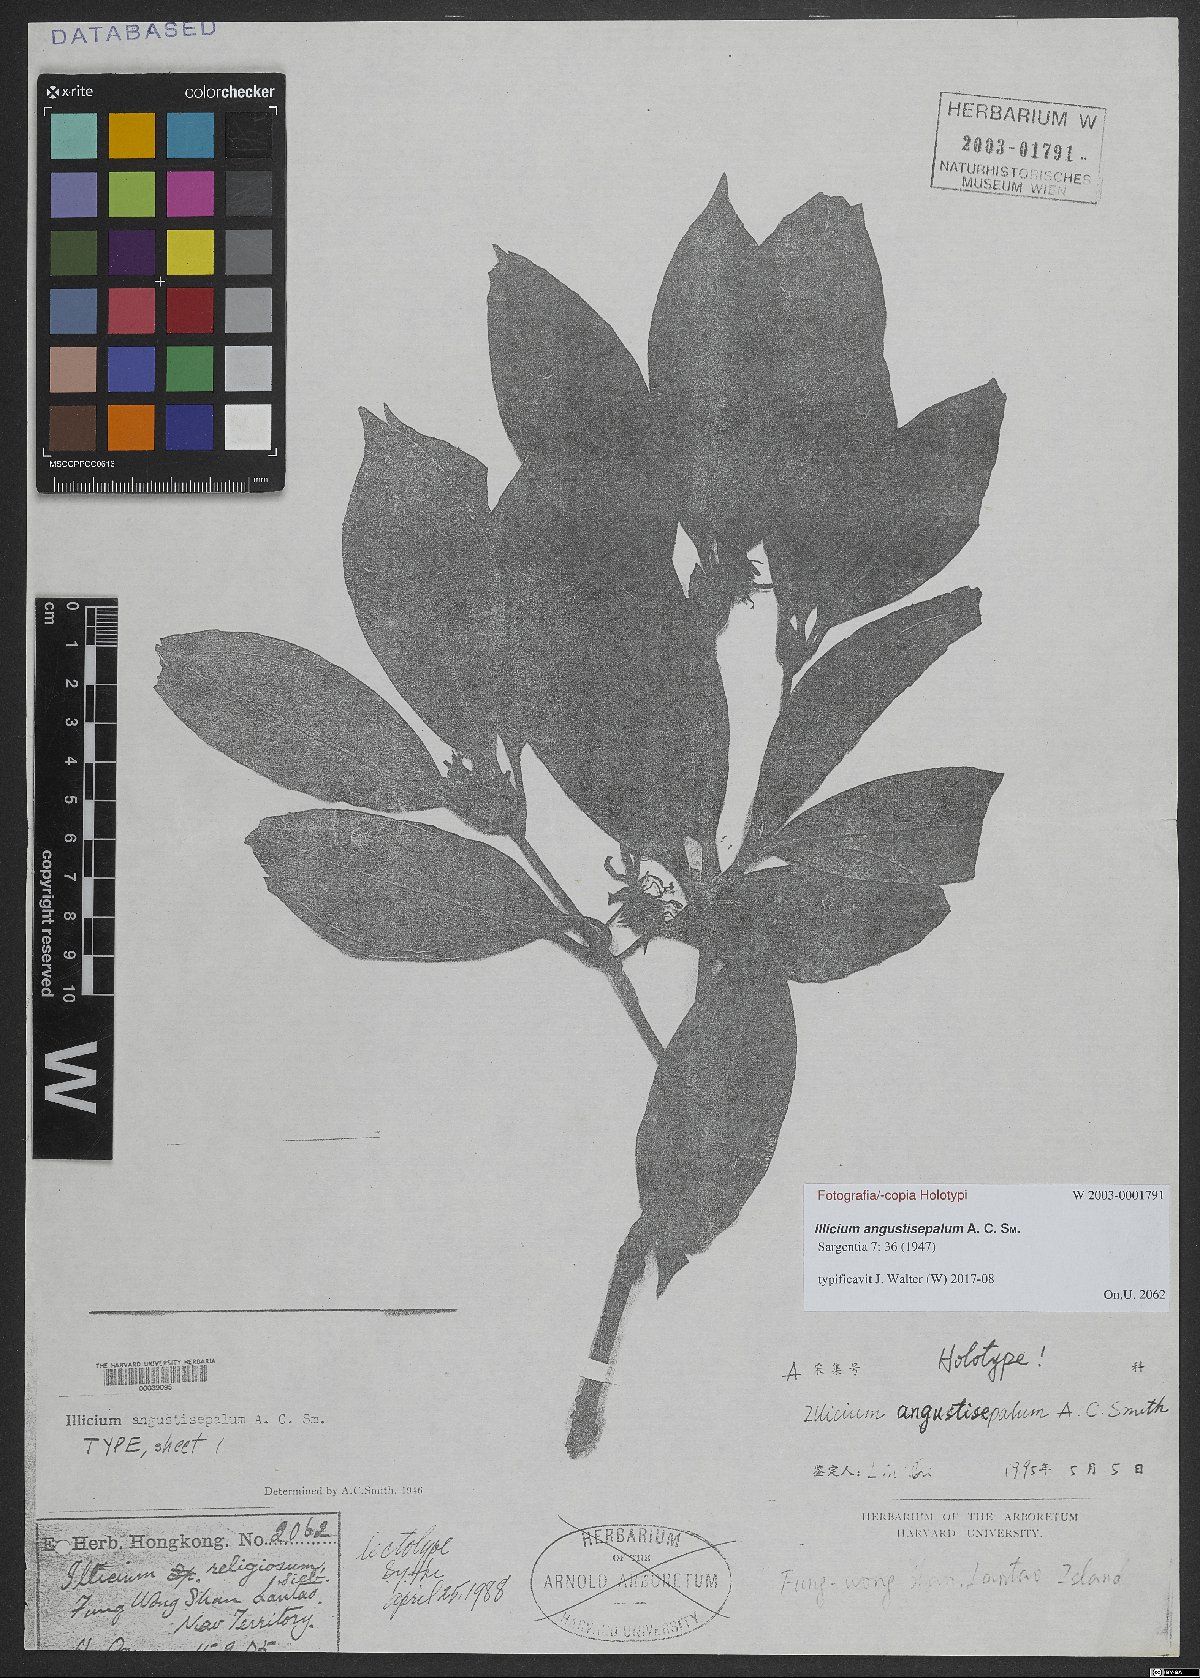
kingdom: Plantae
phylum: Tracheophyta
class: Magnoliopsida
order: Austrobaileyales
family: Schisandraceae
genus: Illicium
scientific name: Illicium angustisepalum
